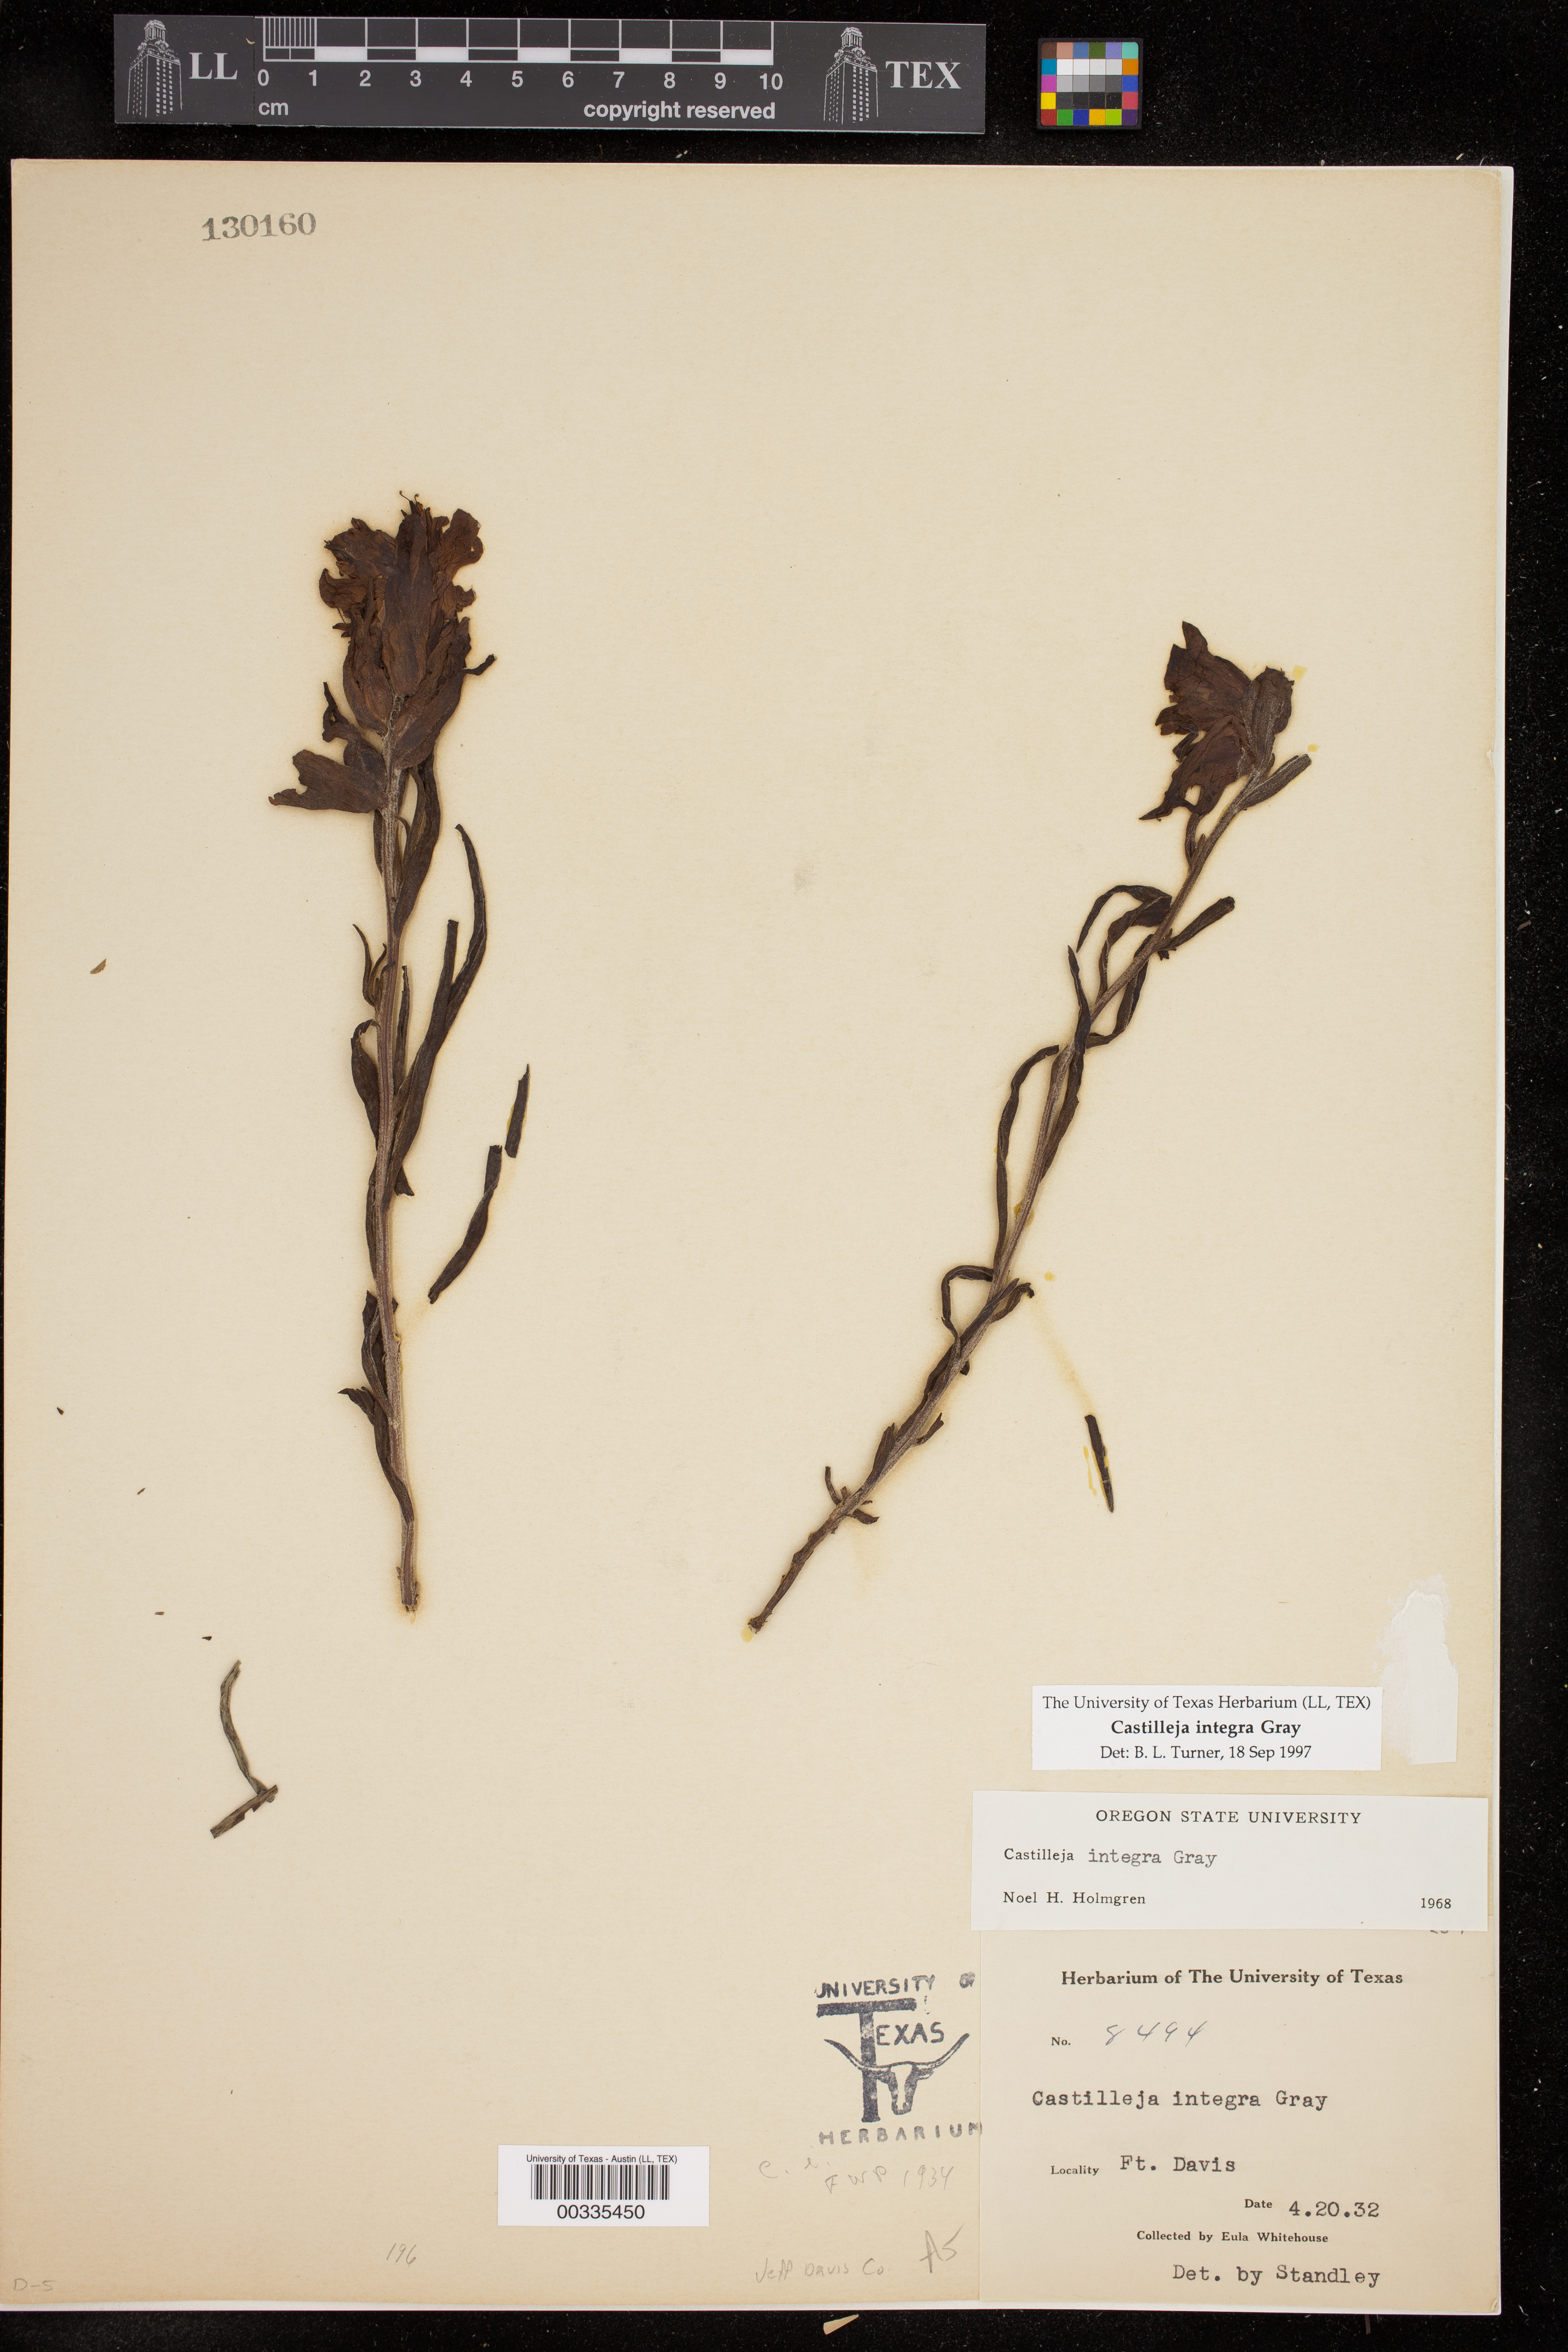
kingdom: Plantae
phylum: Tracheophyta
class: Magnoliopsida
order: Lamiales
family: Orobanchaceae
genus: Castilleja
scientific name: Castilleja integra
